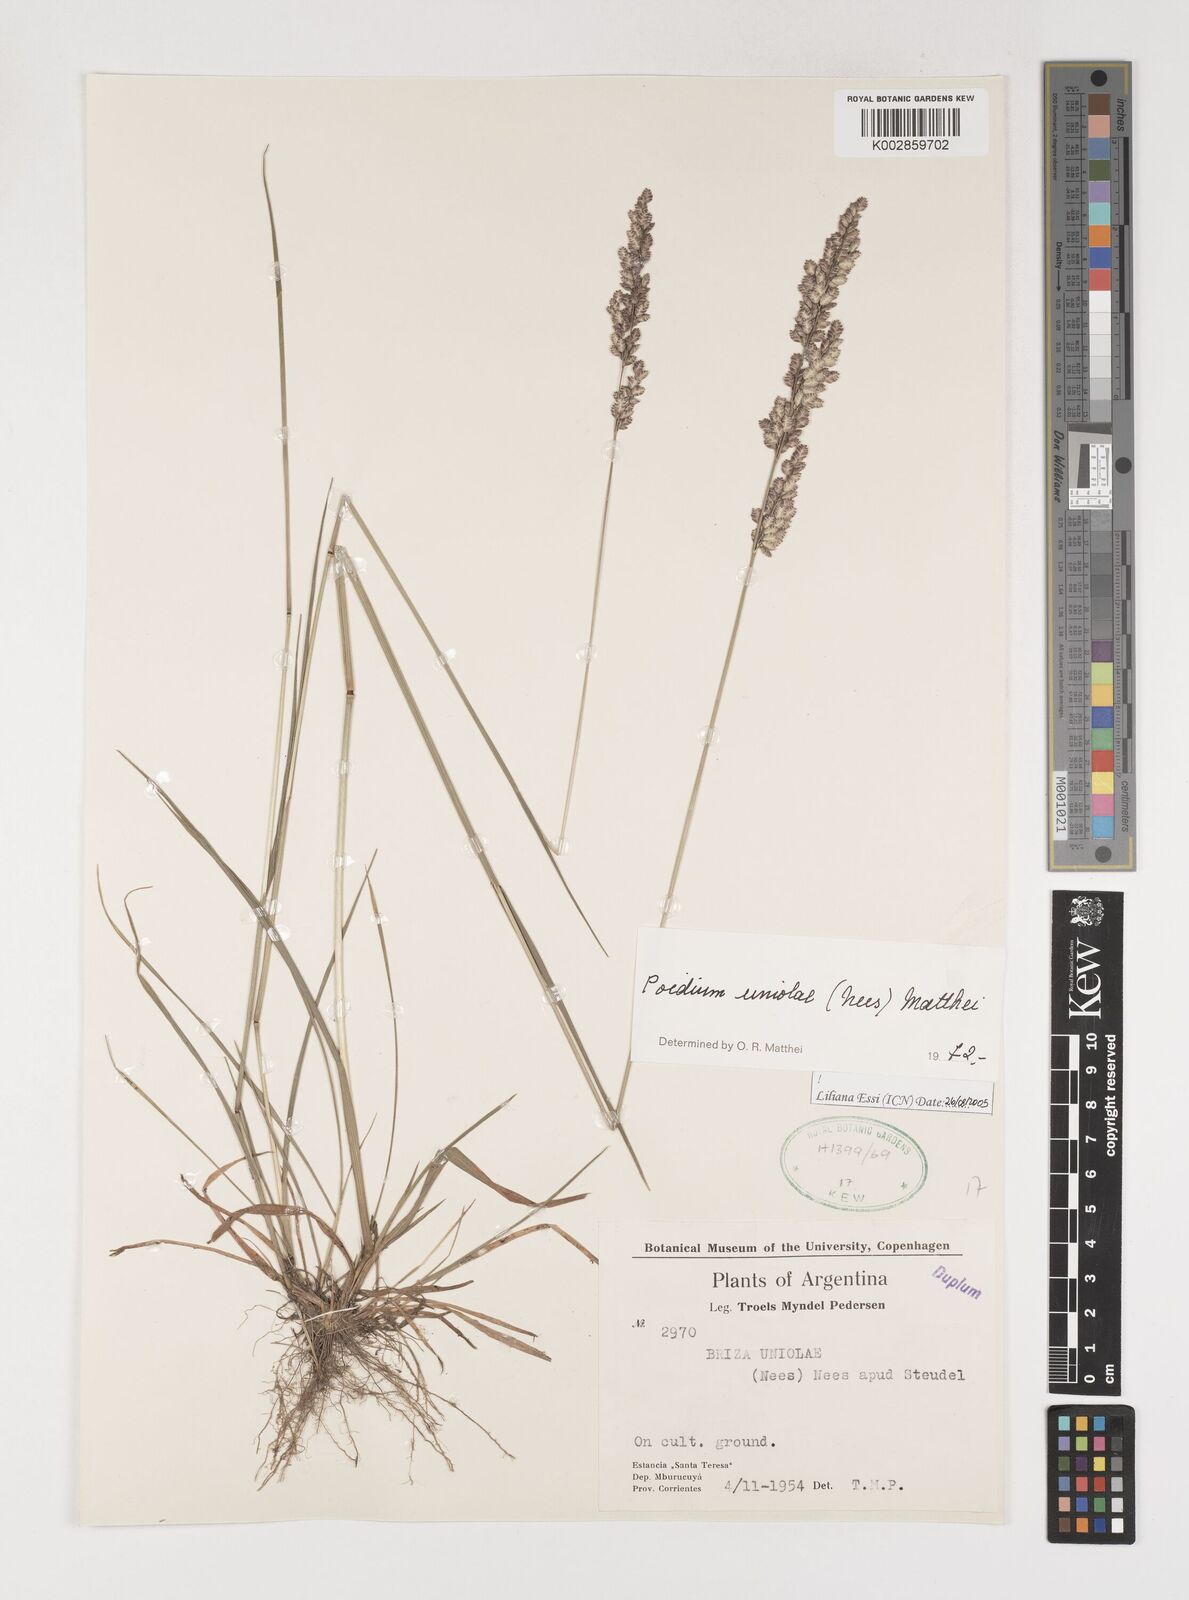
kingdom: Plantae
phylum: Tracheophyta
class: Liliopsida
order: Poales
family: Poaceae
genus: Poidium
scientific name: Poidium uniolae
